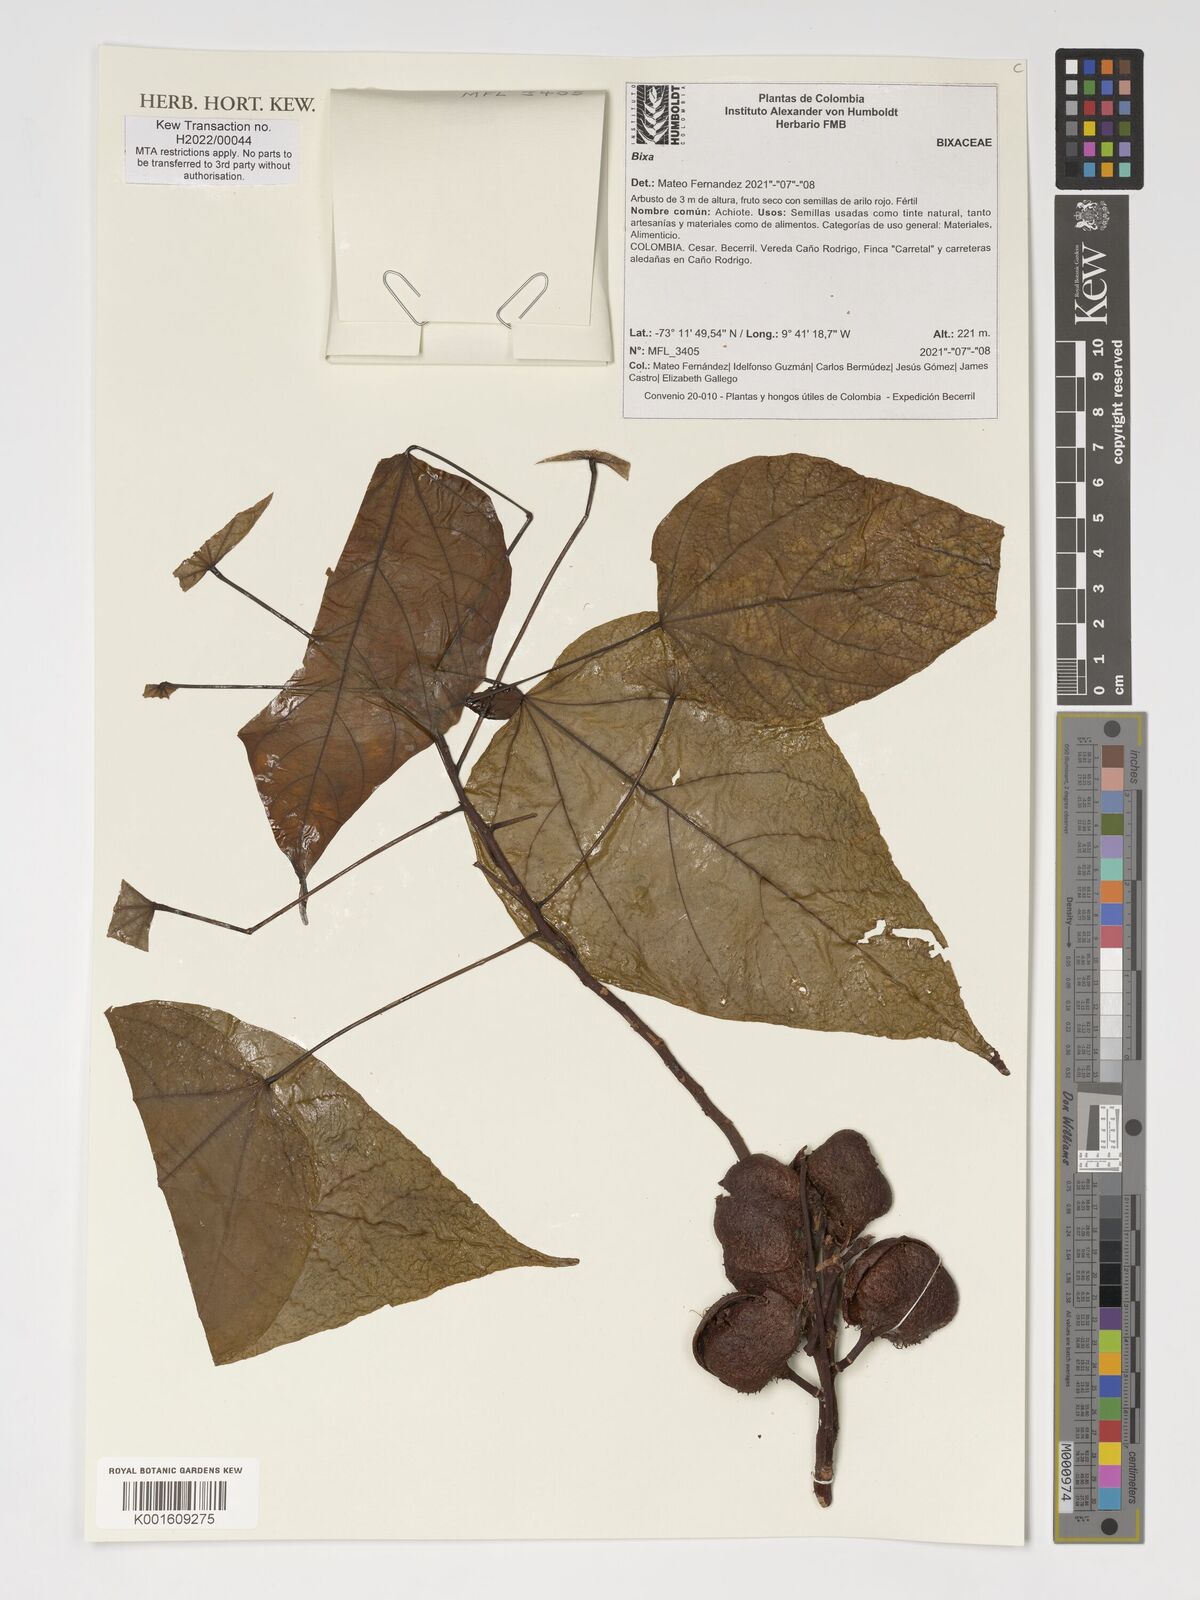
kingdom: Plantae
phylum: Tracheophyta
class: Magnoliopsida
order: Malvales
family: Bixaceae
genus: Bixa
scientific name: Bixa
